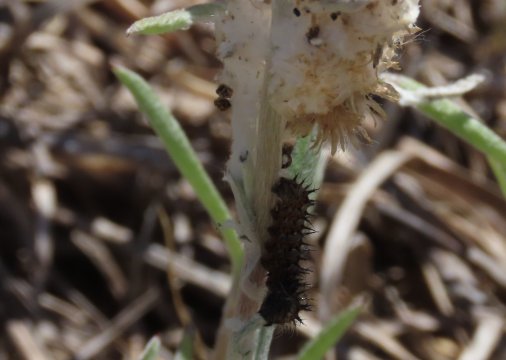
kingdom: Animalia
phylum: Arthropoda
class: Insecta
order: Lepidoptera
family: Nymphalidae
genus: Vanessa
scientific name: Vanessa virginiensis
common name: American Lady
